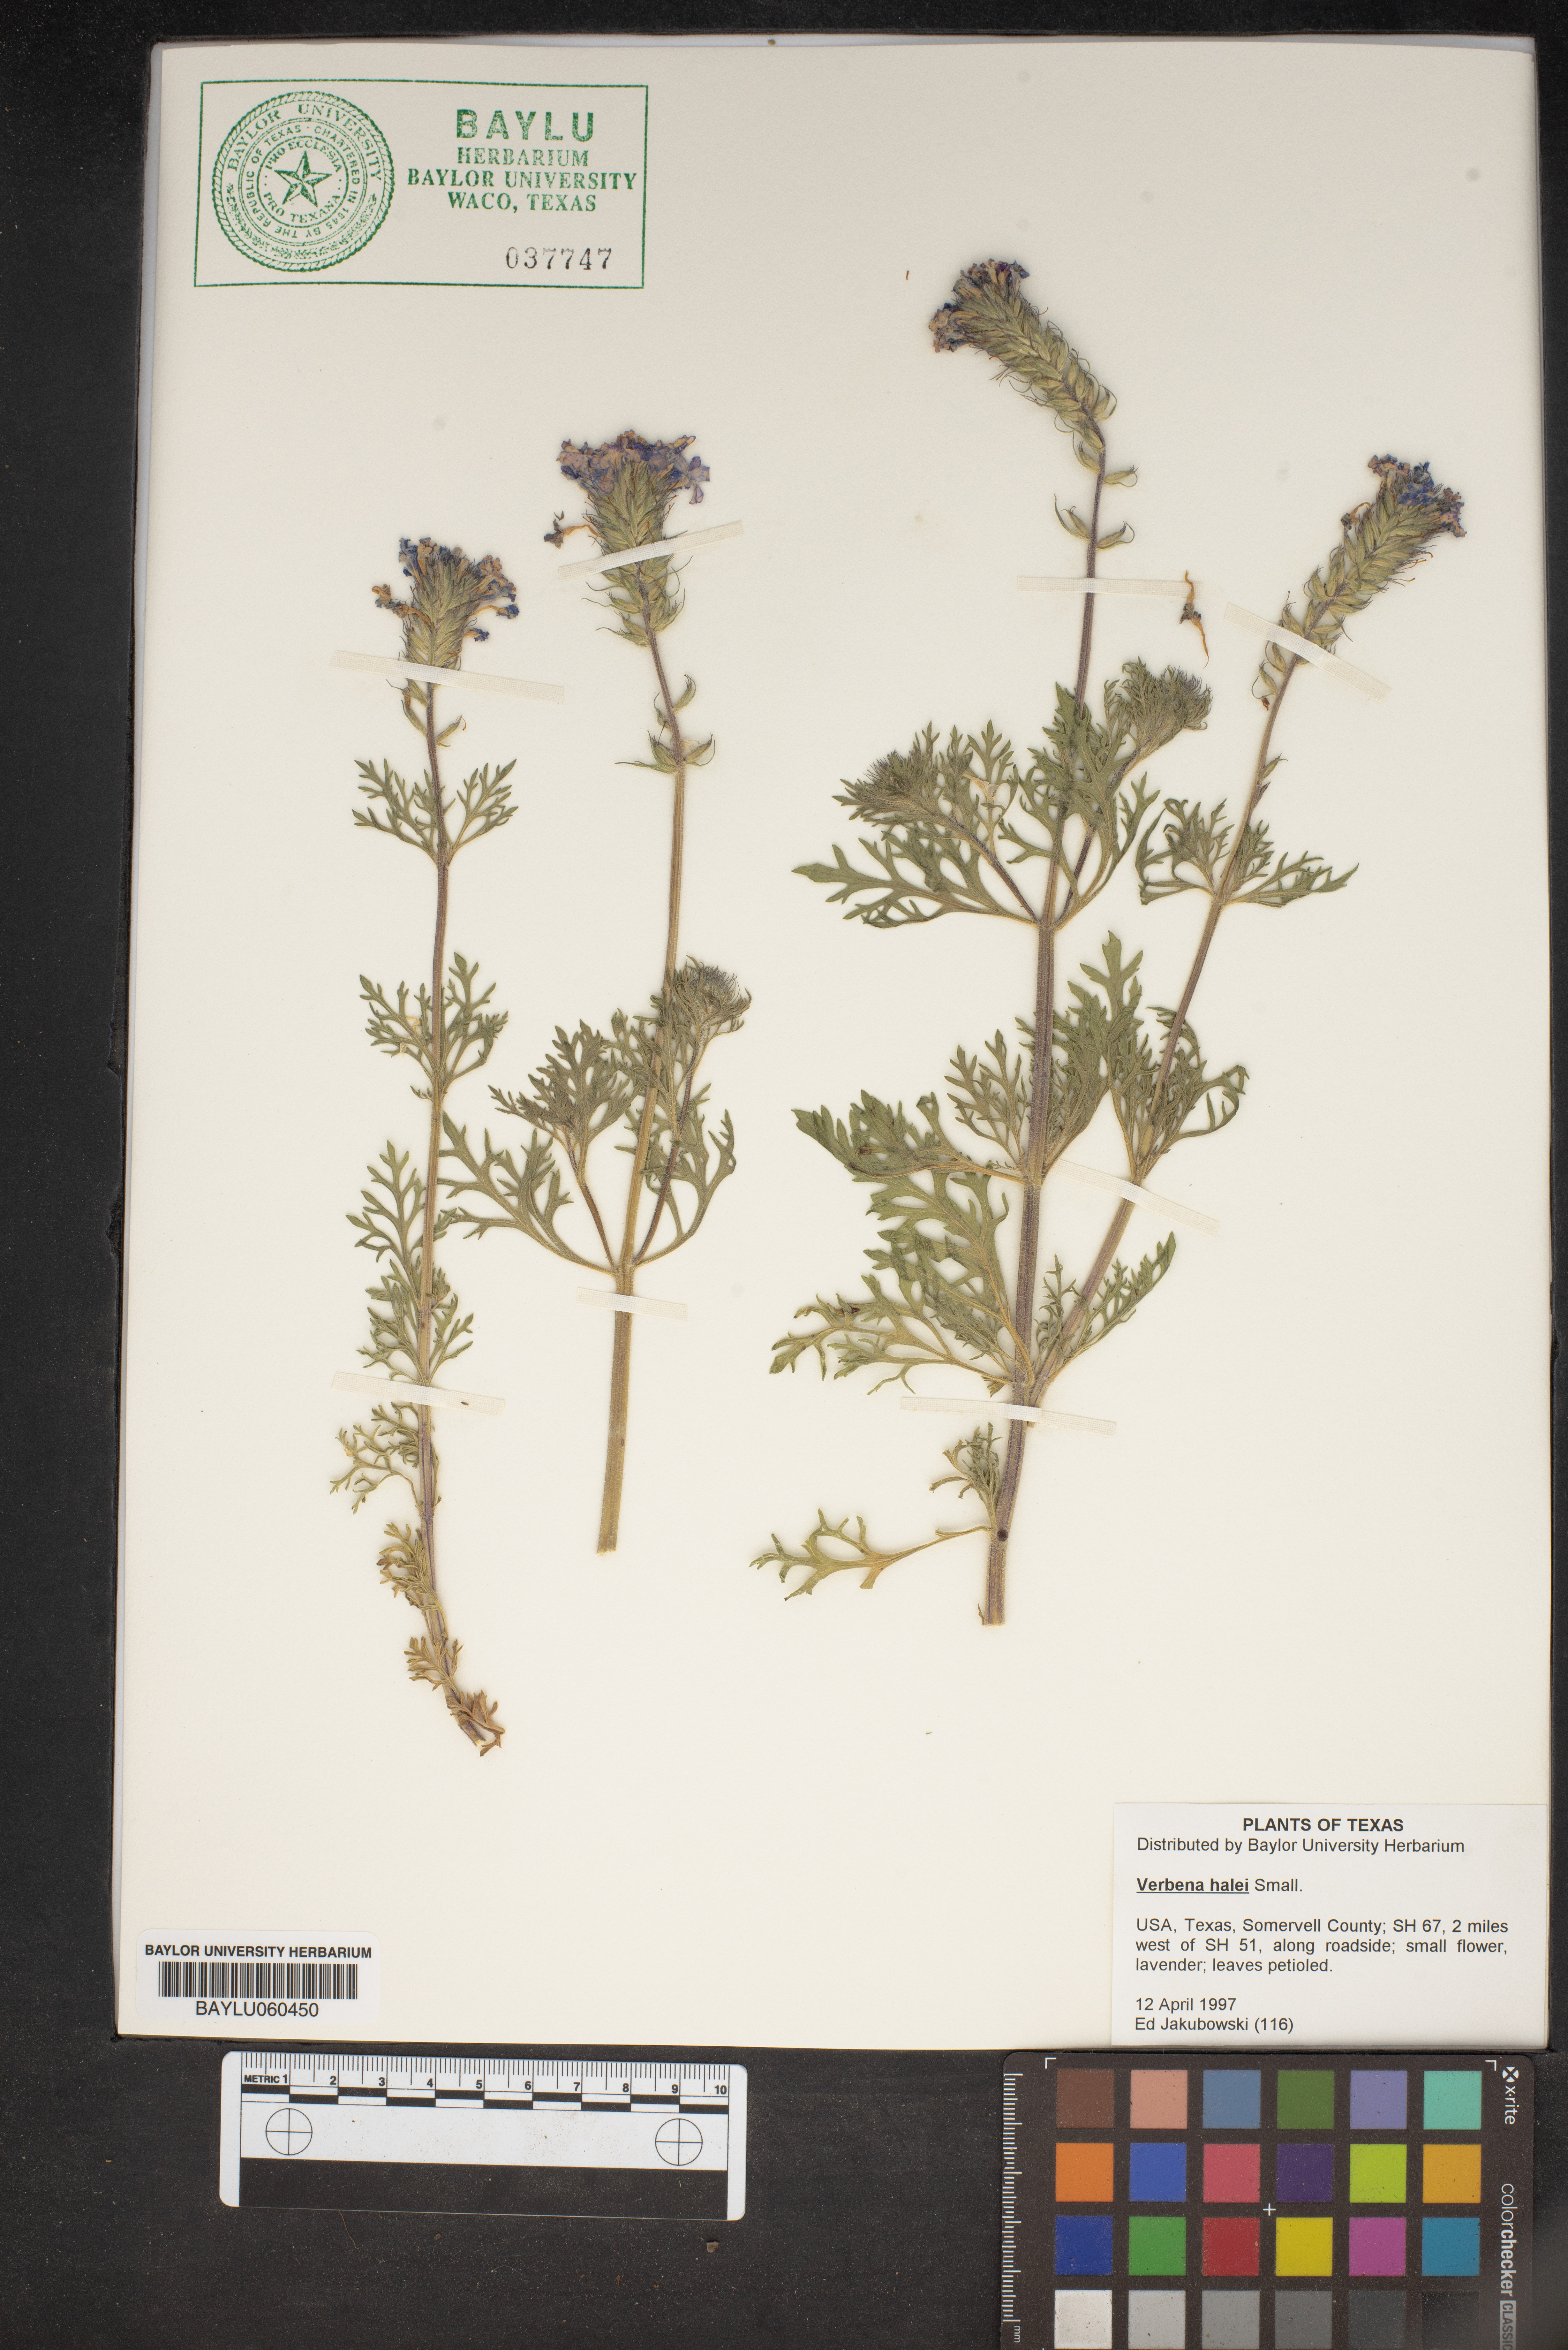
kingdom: Plantae
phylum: Tracheophyta
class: Magnoliopsida
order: Lamiales
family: Verbenaceae
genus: Verbena
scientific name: Verbena halei
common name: Texas vervain
